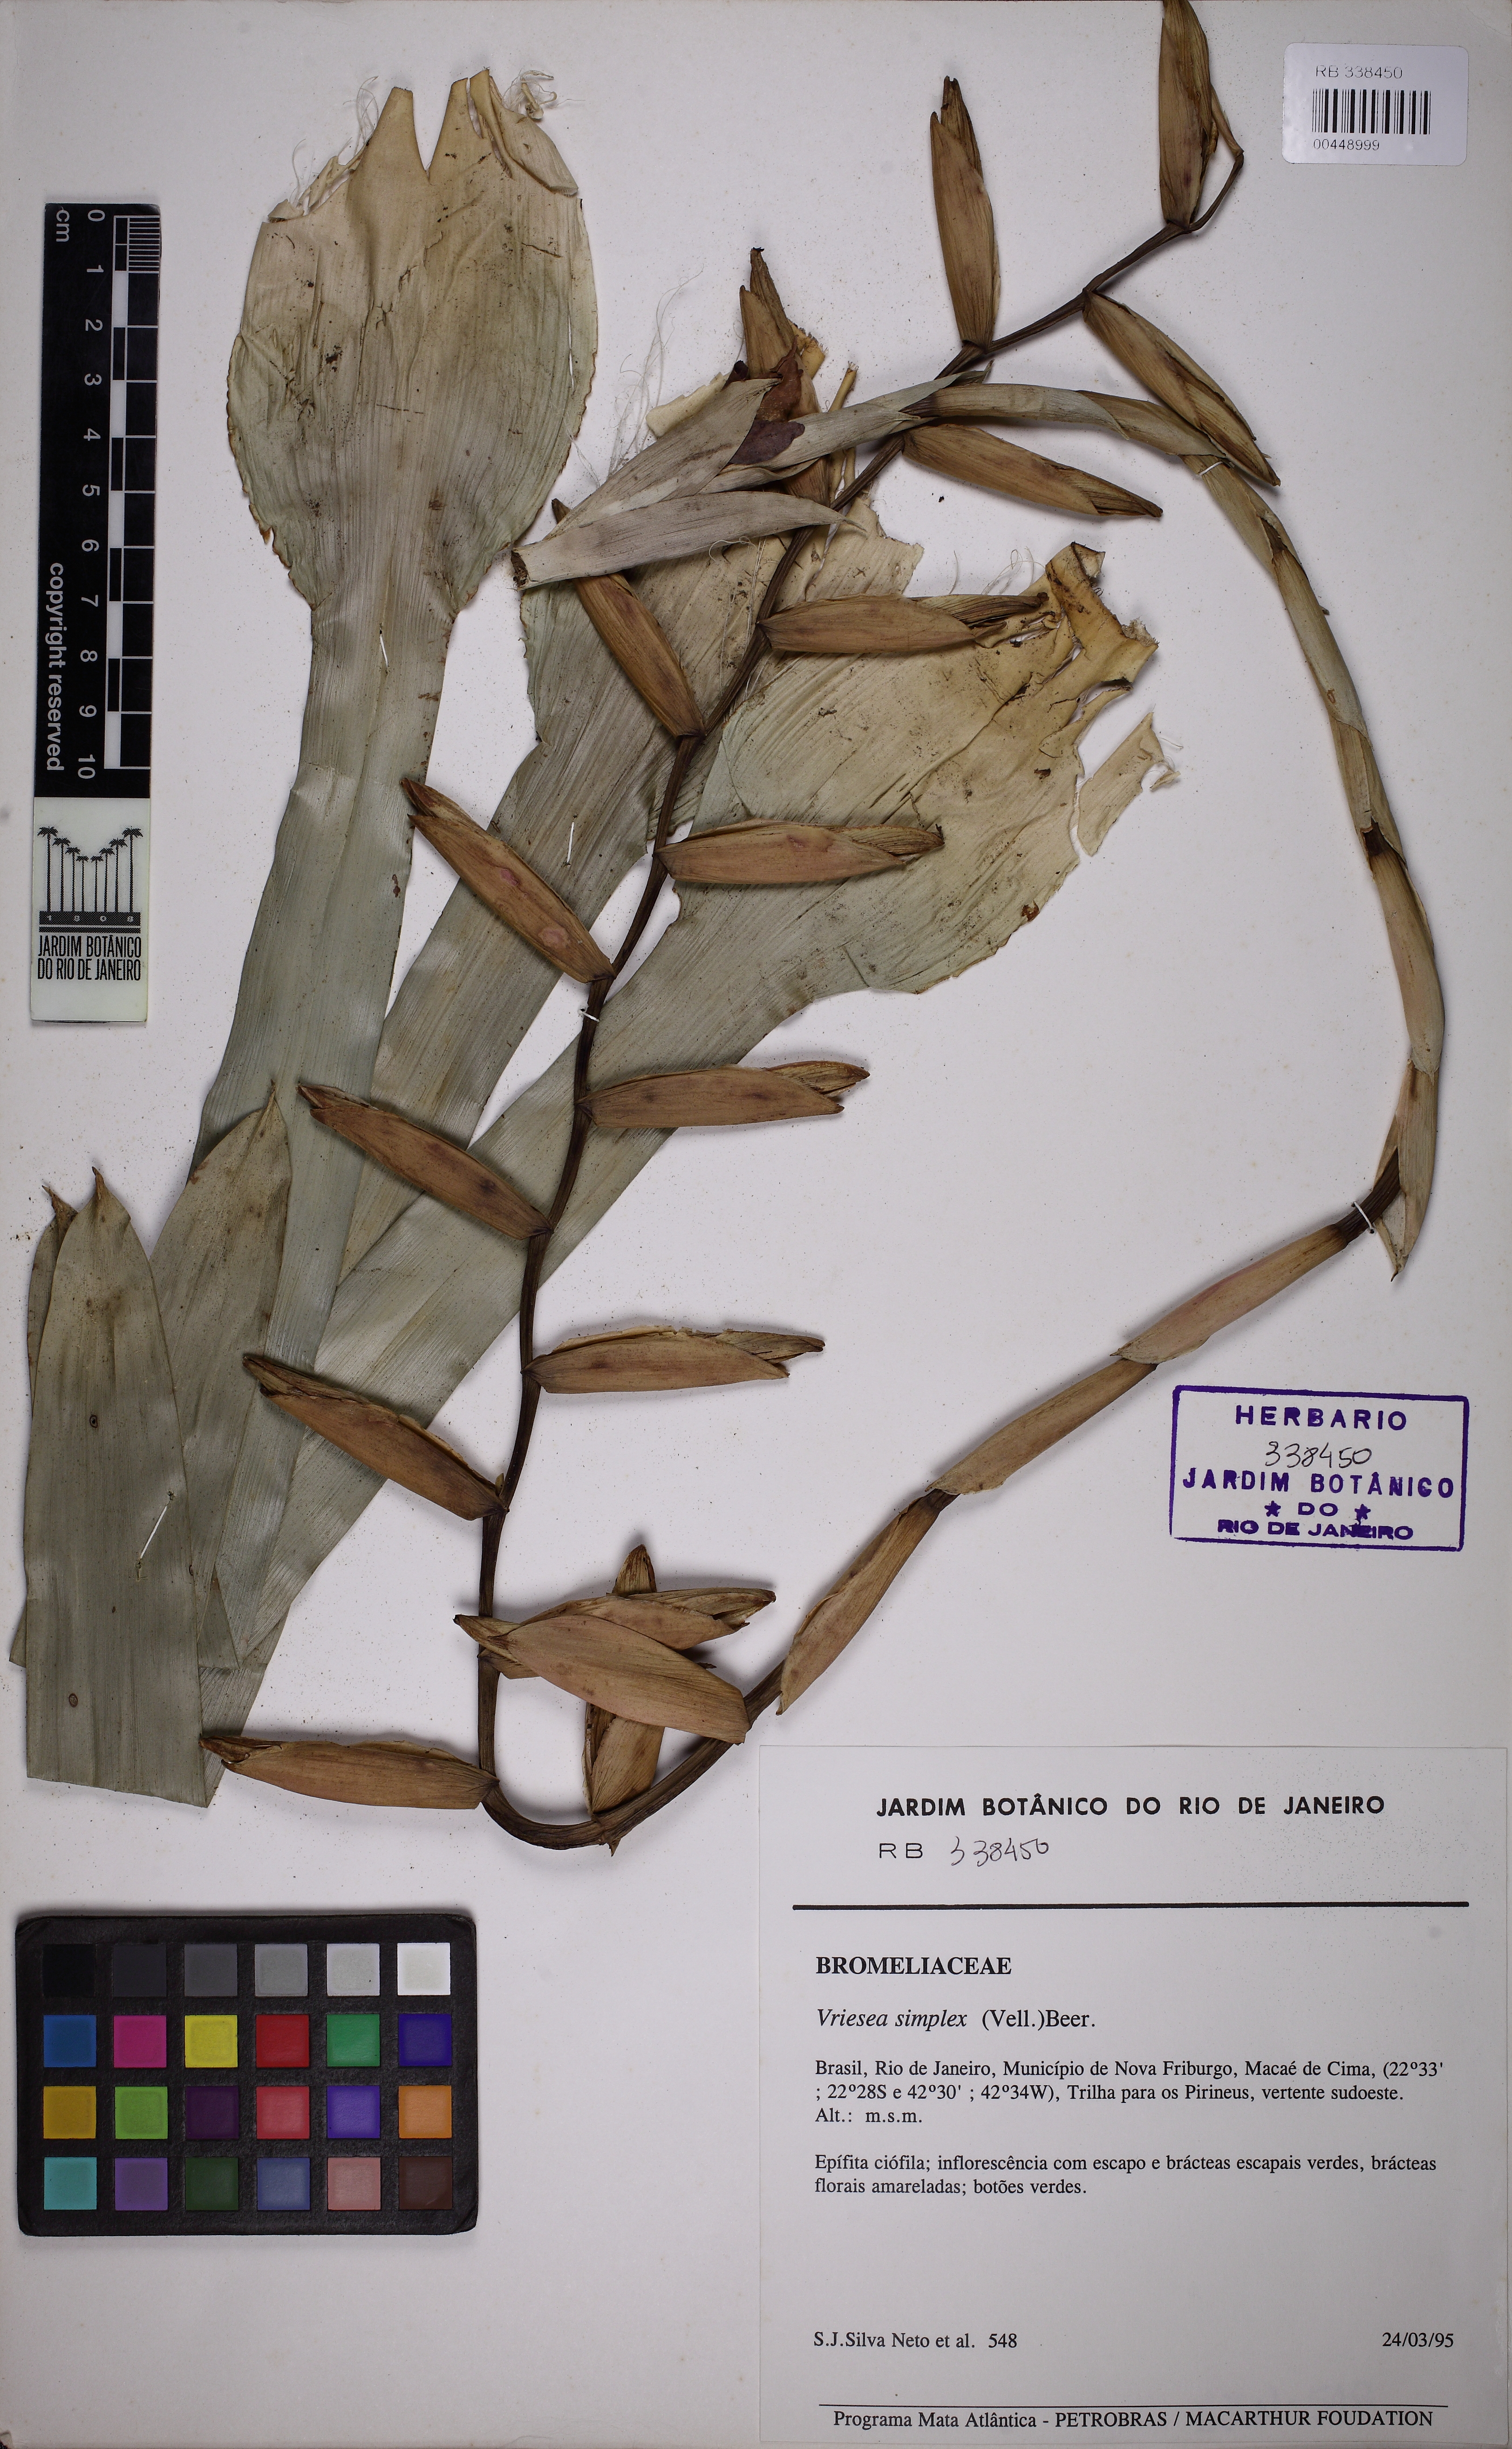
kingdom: Plantae
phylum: Tracheophyta
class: Liliopsida
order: Poales
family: Bromeliaceae
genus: Vriesea
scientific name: Vriesea simplex
